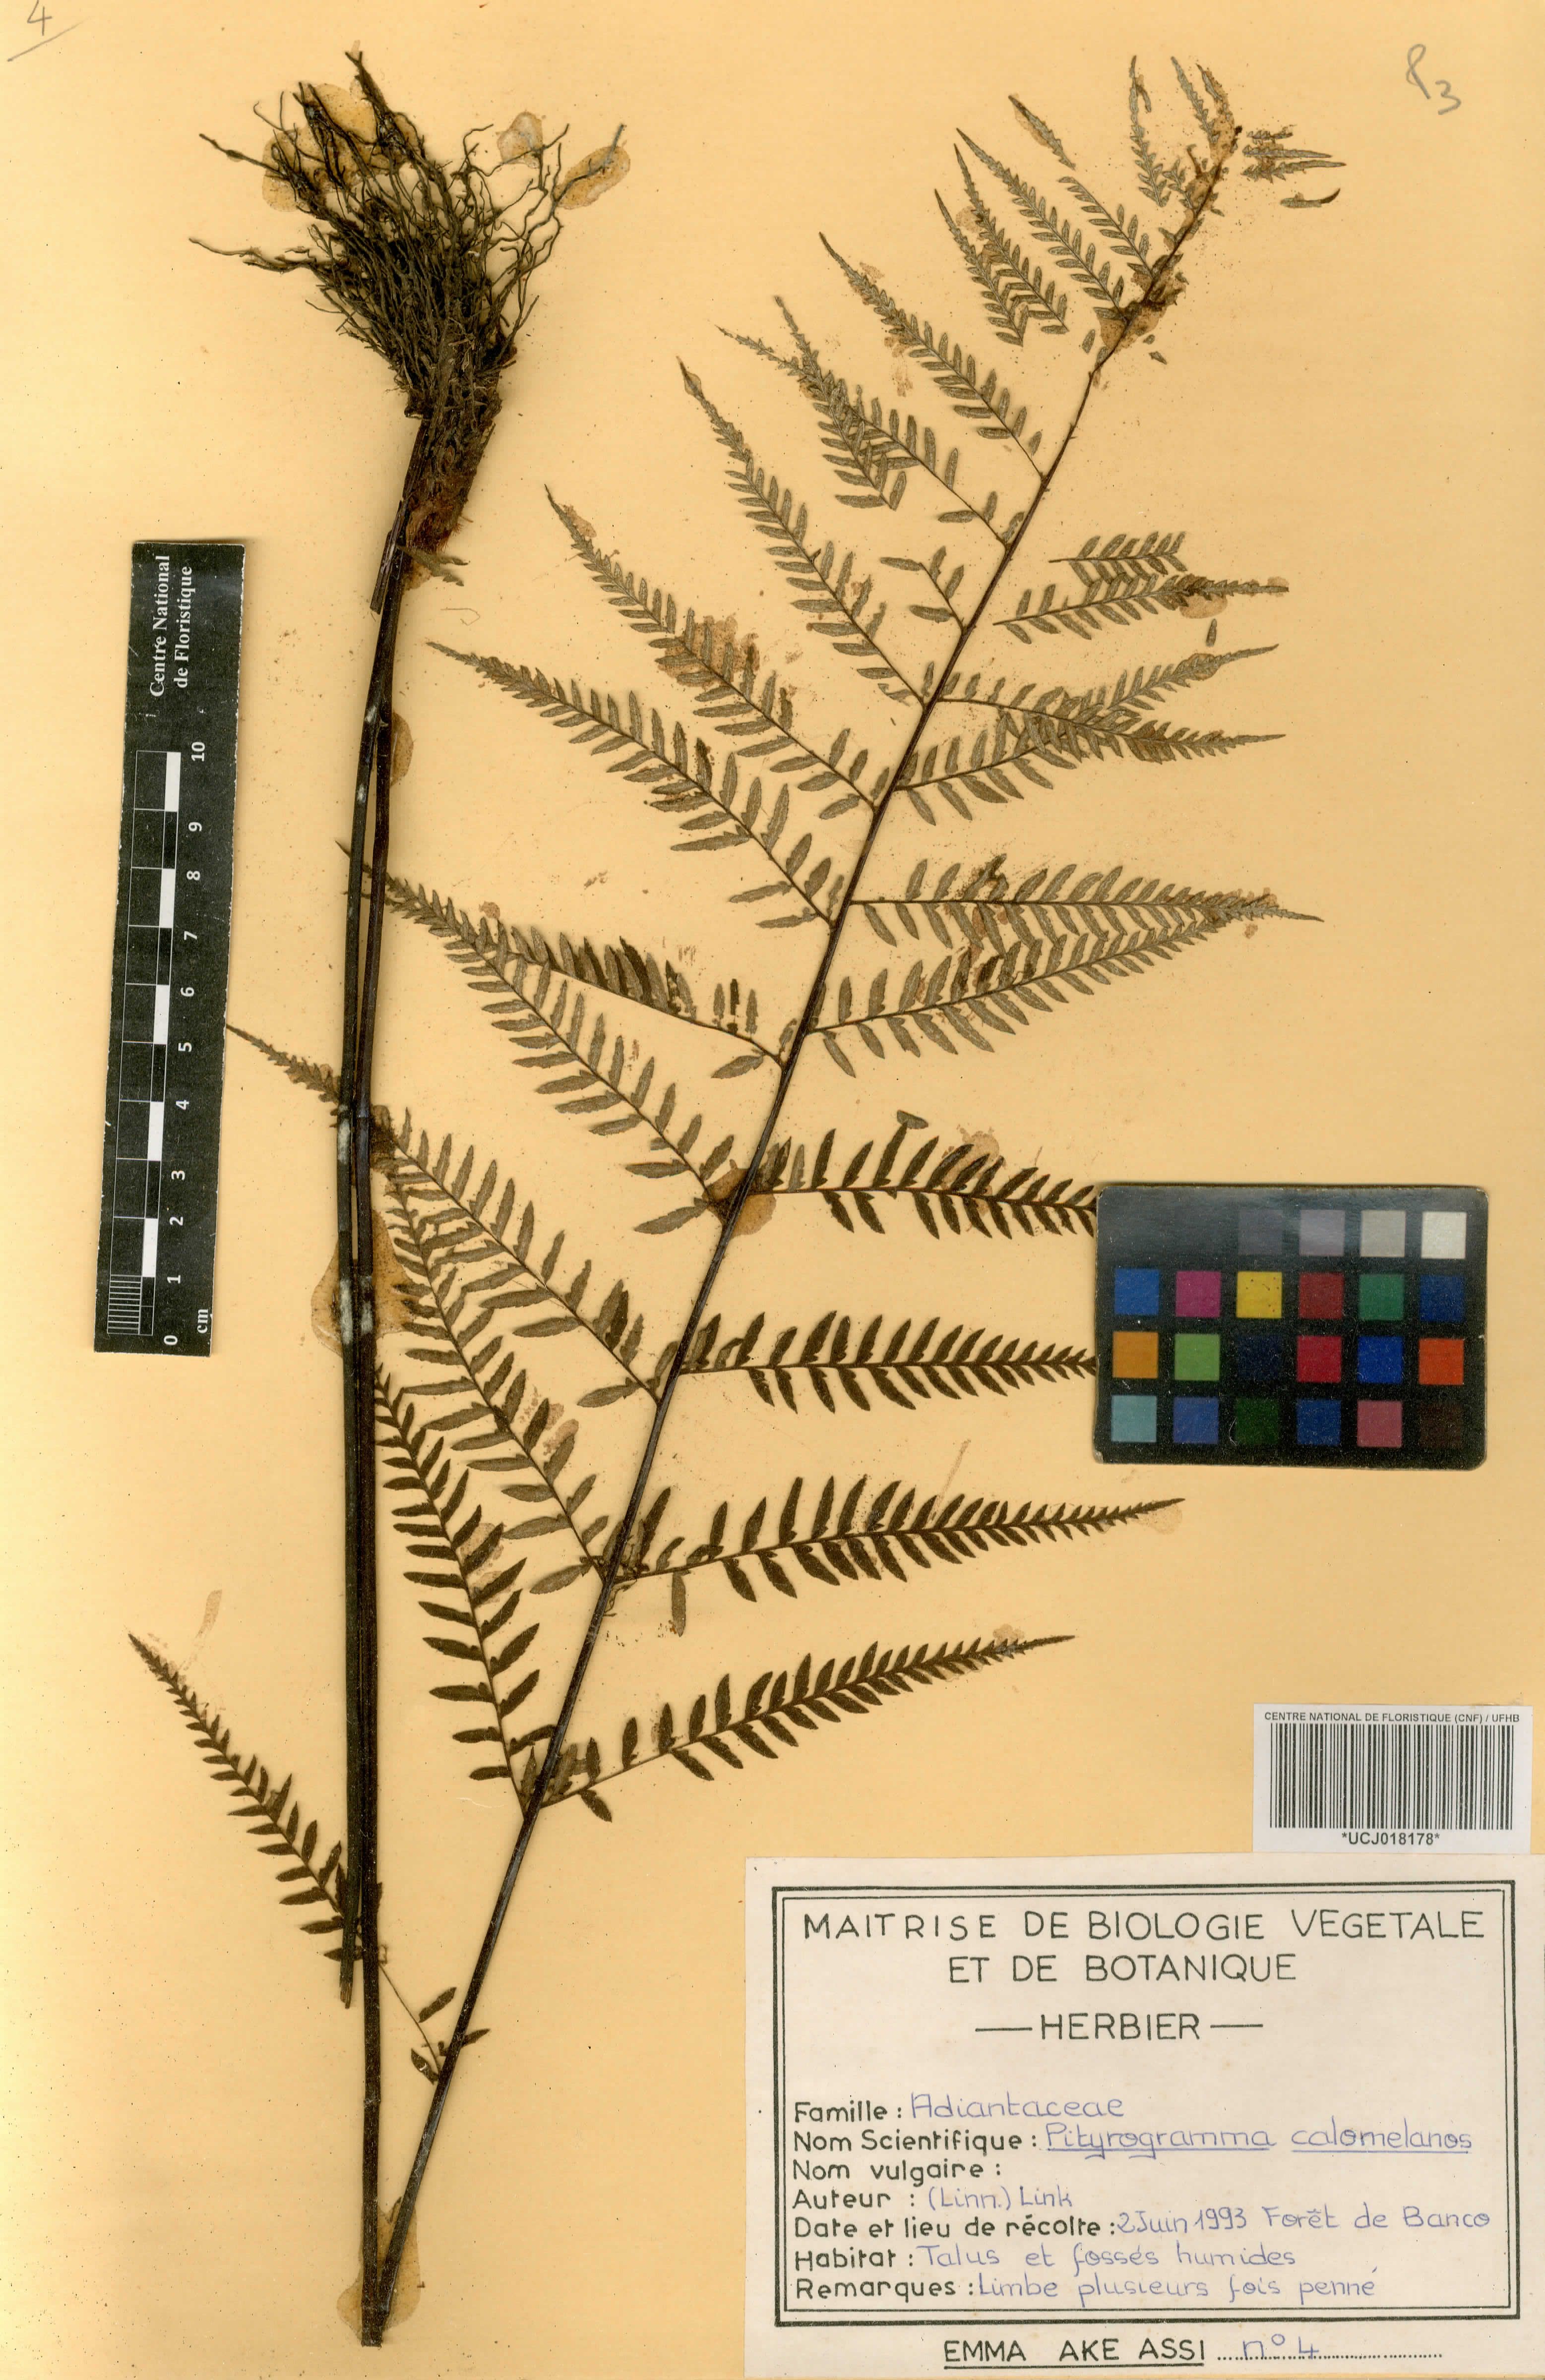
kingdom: Plantae
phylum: Tracheophyta
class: Polypodiopsida
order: Polypodiales
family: Pteridaceae
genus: Pityrogramma
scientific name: Pityrogramma calomelanos
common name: Dixie silverback fern
